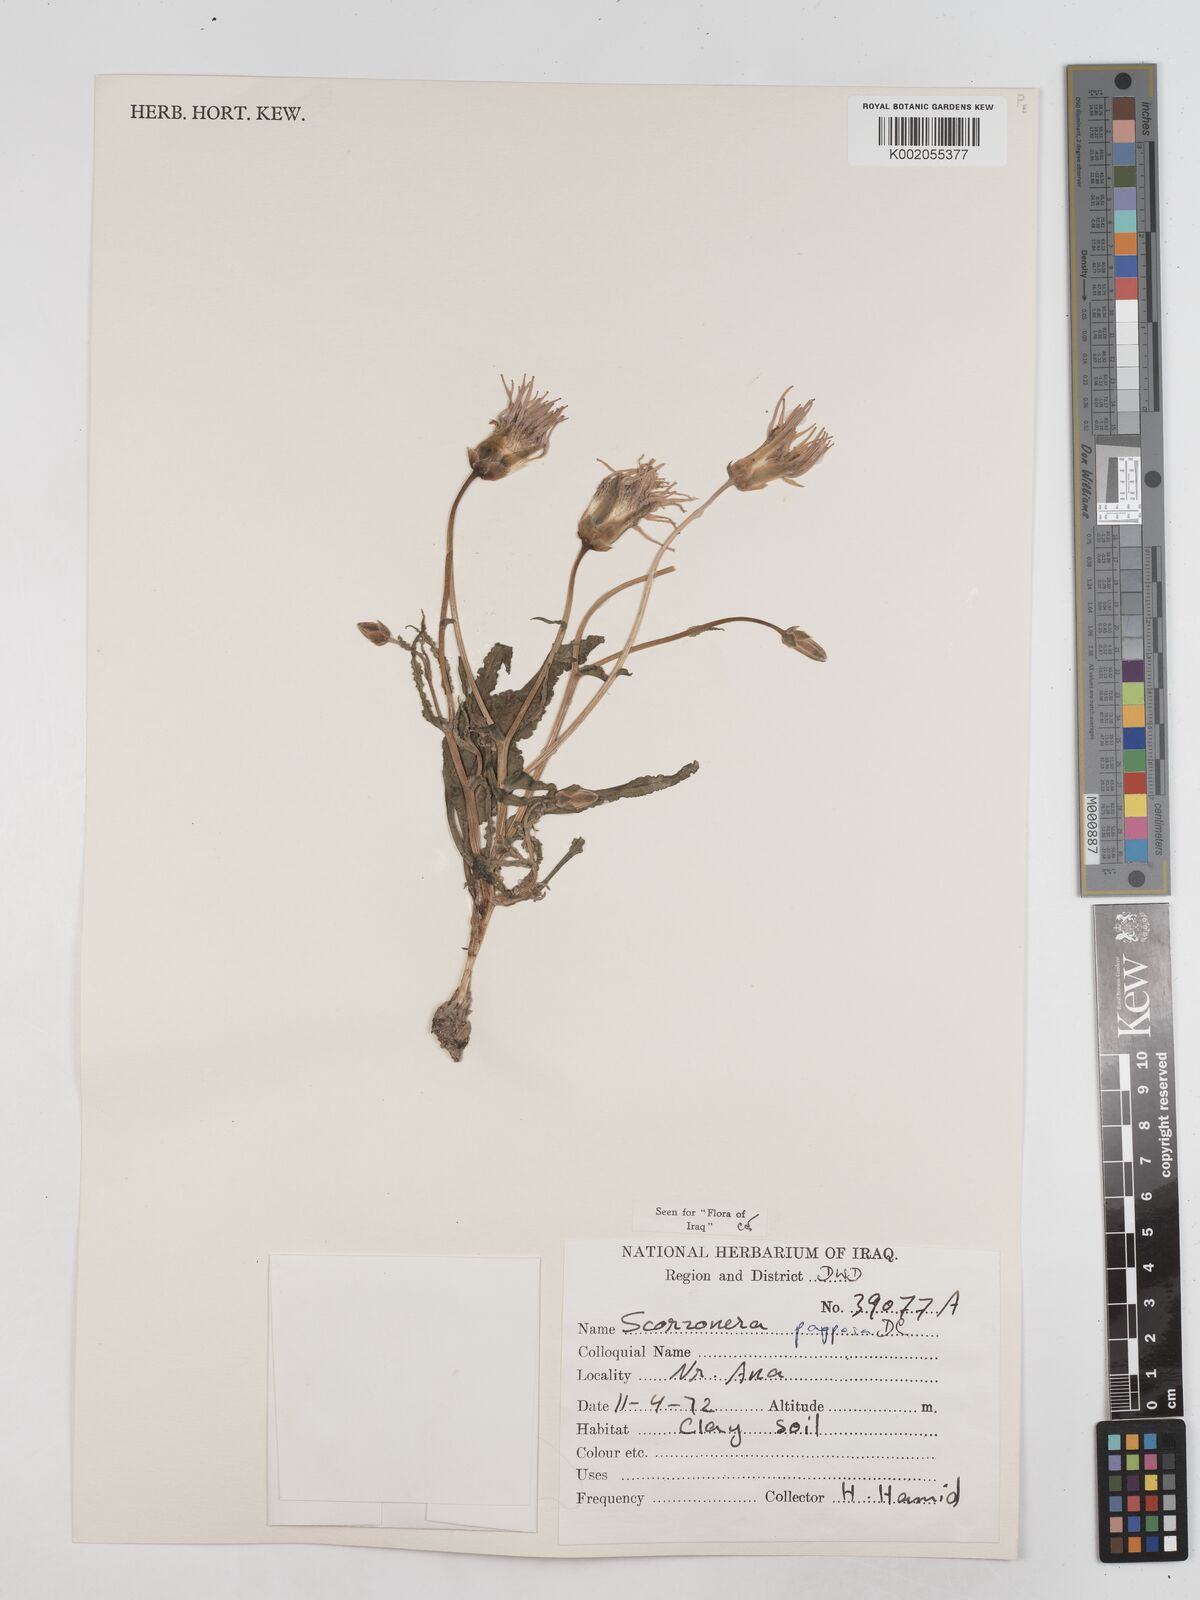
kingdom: Plantae
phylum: Tracheophyta
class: Magnoliopsida
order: Asterales
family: Asteraceae
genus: Pseudopodospermum
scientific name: Pseudopodospermum papposum
